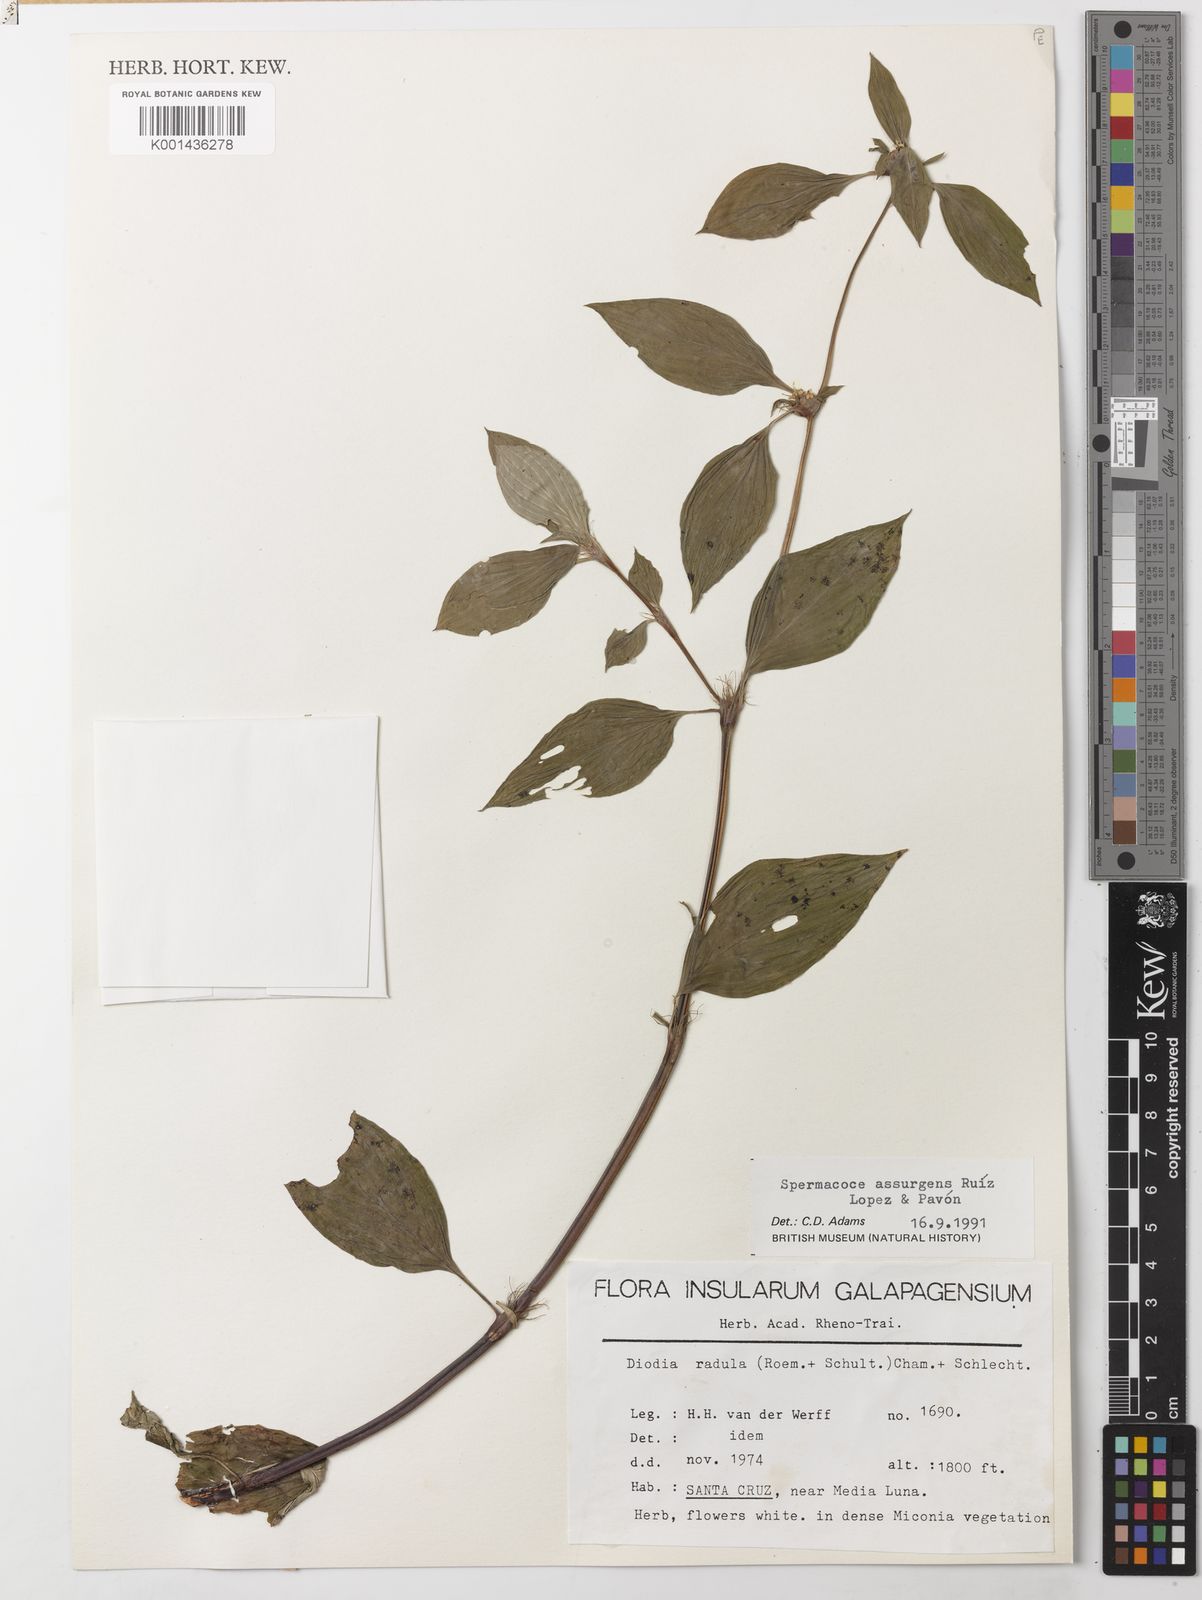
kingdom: Plantae
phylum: Tracheophyta
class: Magnoliopsida
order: Gentianales
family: Rubiaceae
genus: Spermacoce
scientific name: Spermacoce remota
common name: Woodland false buttonweed
